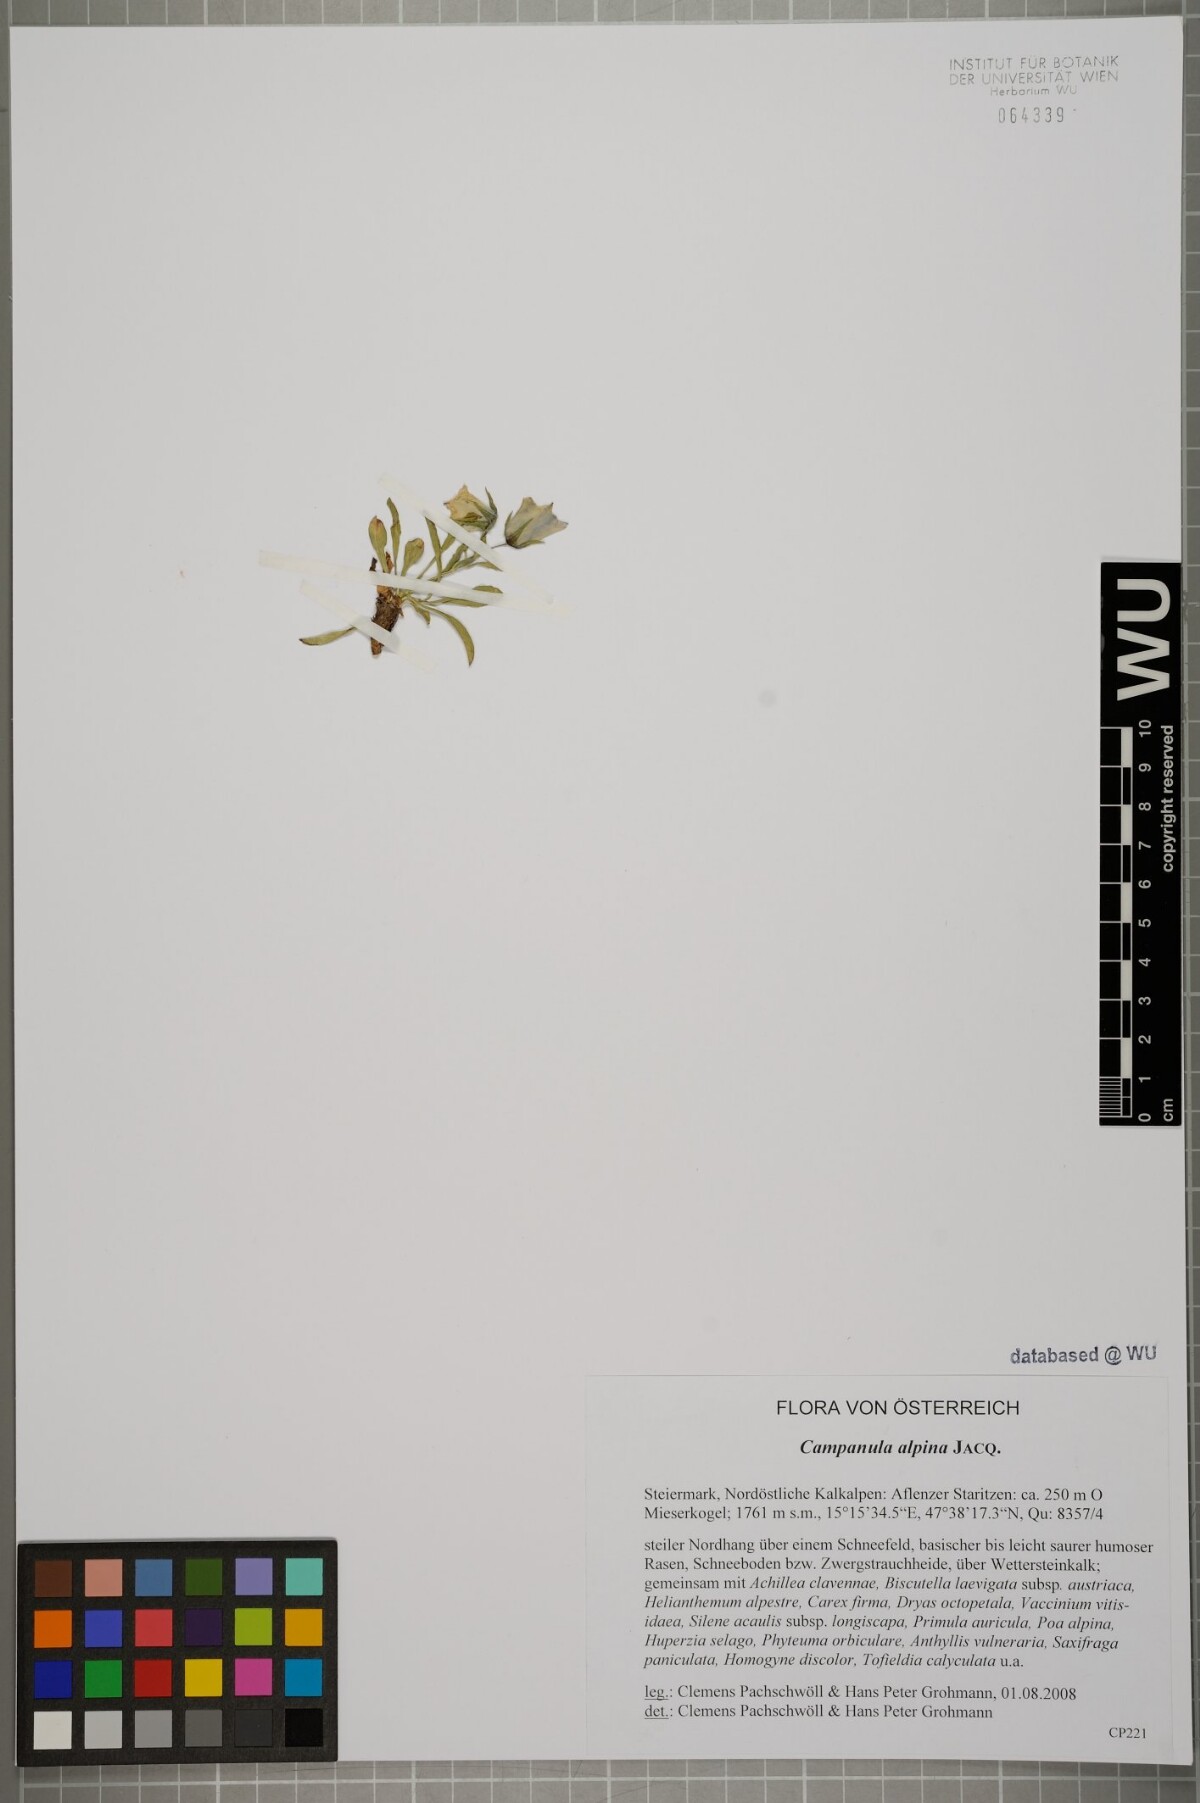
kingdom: Plantae
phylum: Tracheophyta
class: Magnoliopsida
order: Asterales
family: Campanulaceae
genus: Campanula
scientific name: Campanula alpina
